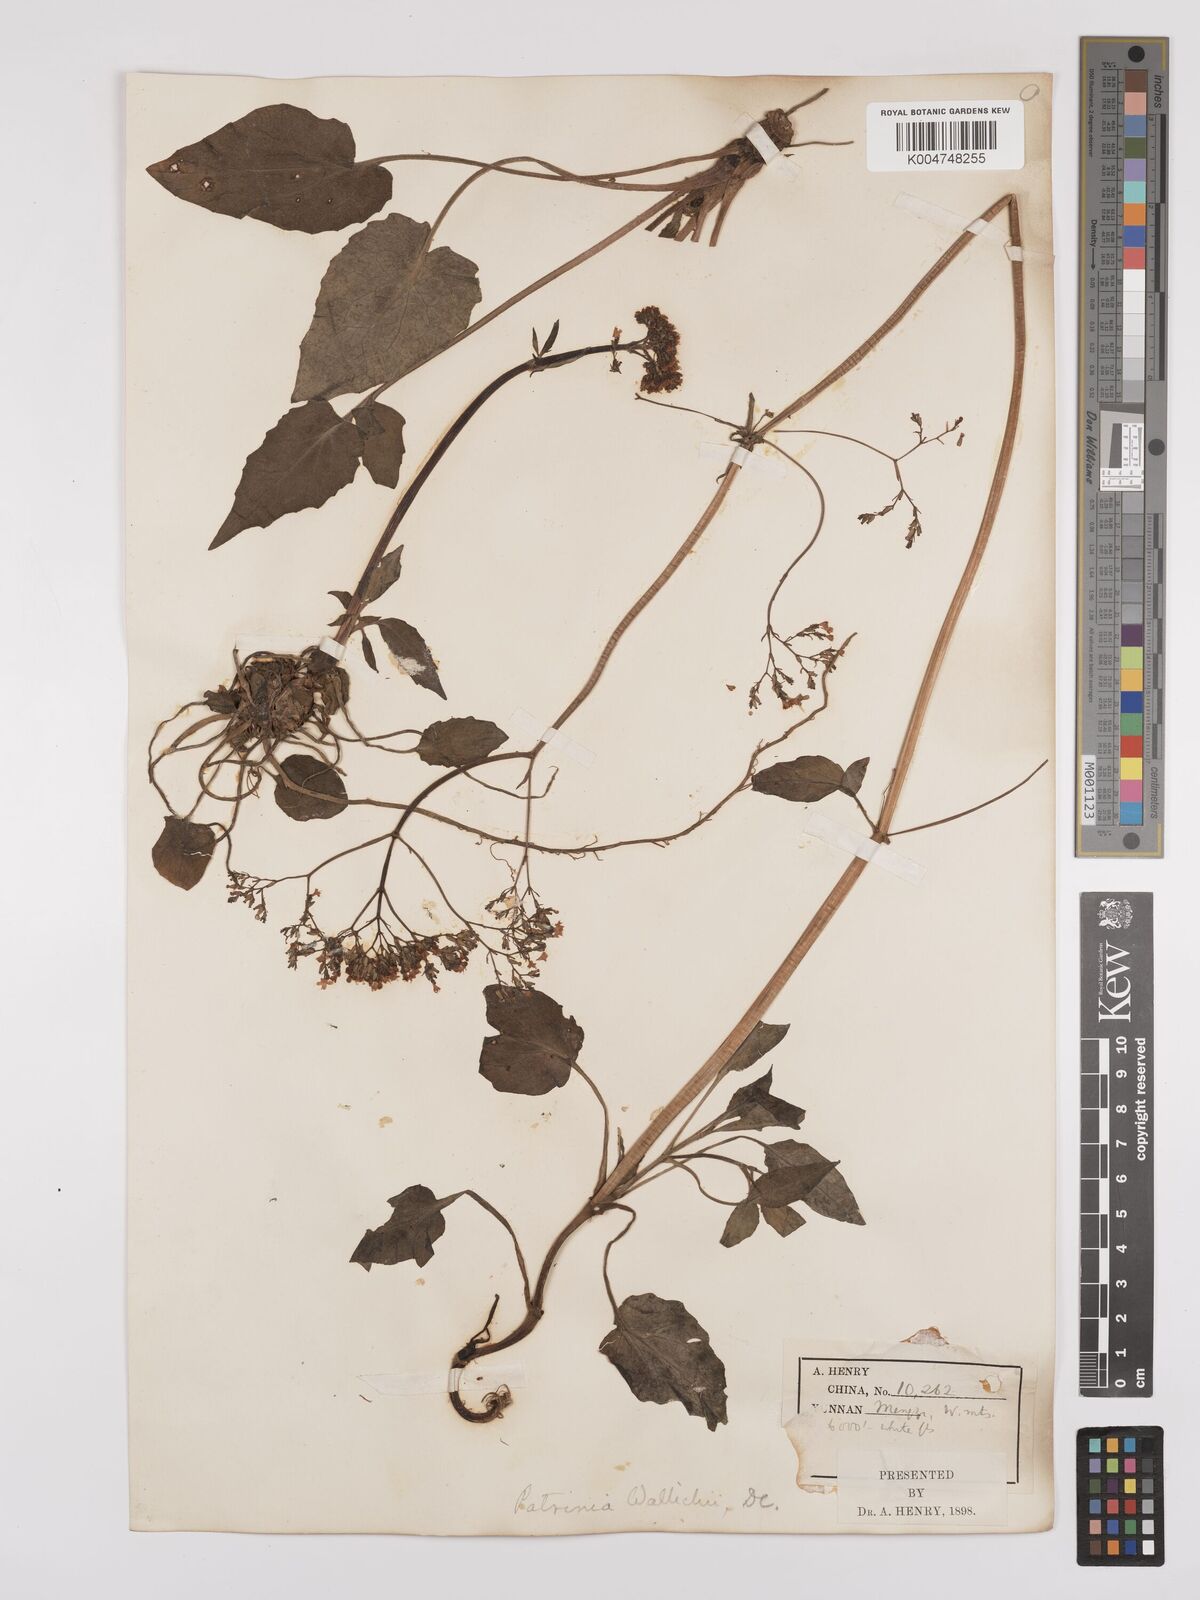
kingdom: Plantae
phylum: Tracheophyta
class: Magnoliopsida
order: Dipsacales
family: Caprifoliaceae
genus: Valeriana
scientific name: Valeriana
